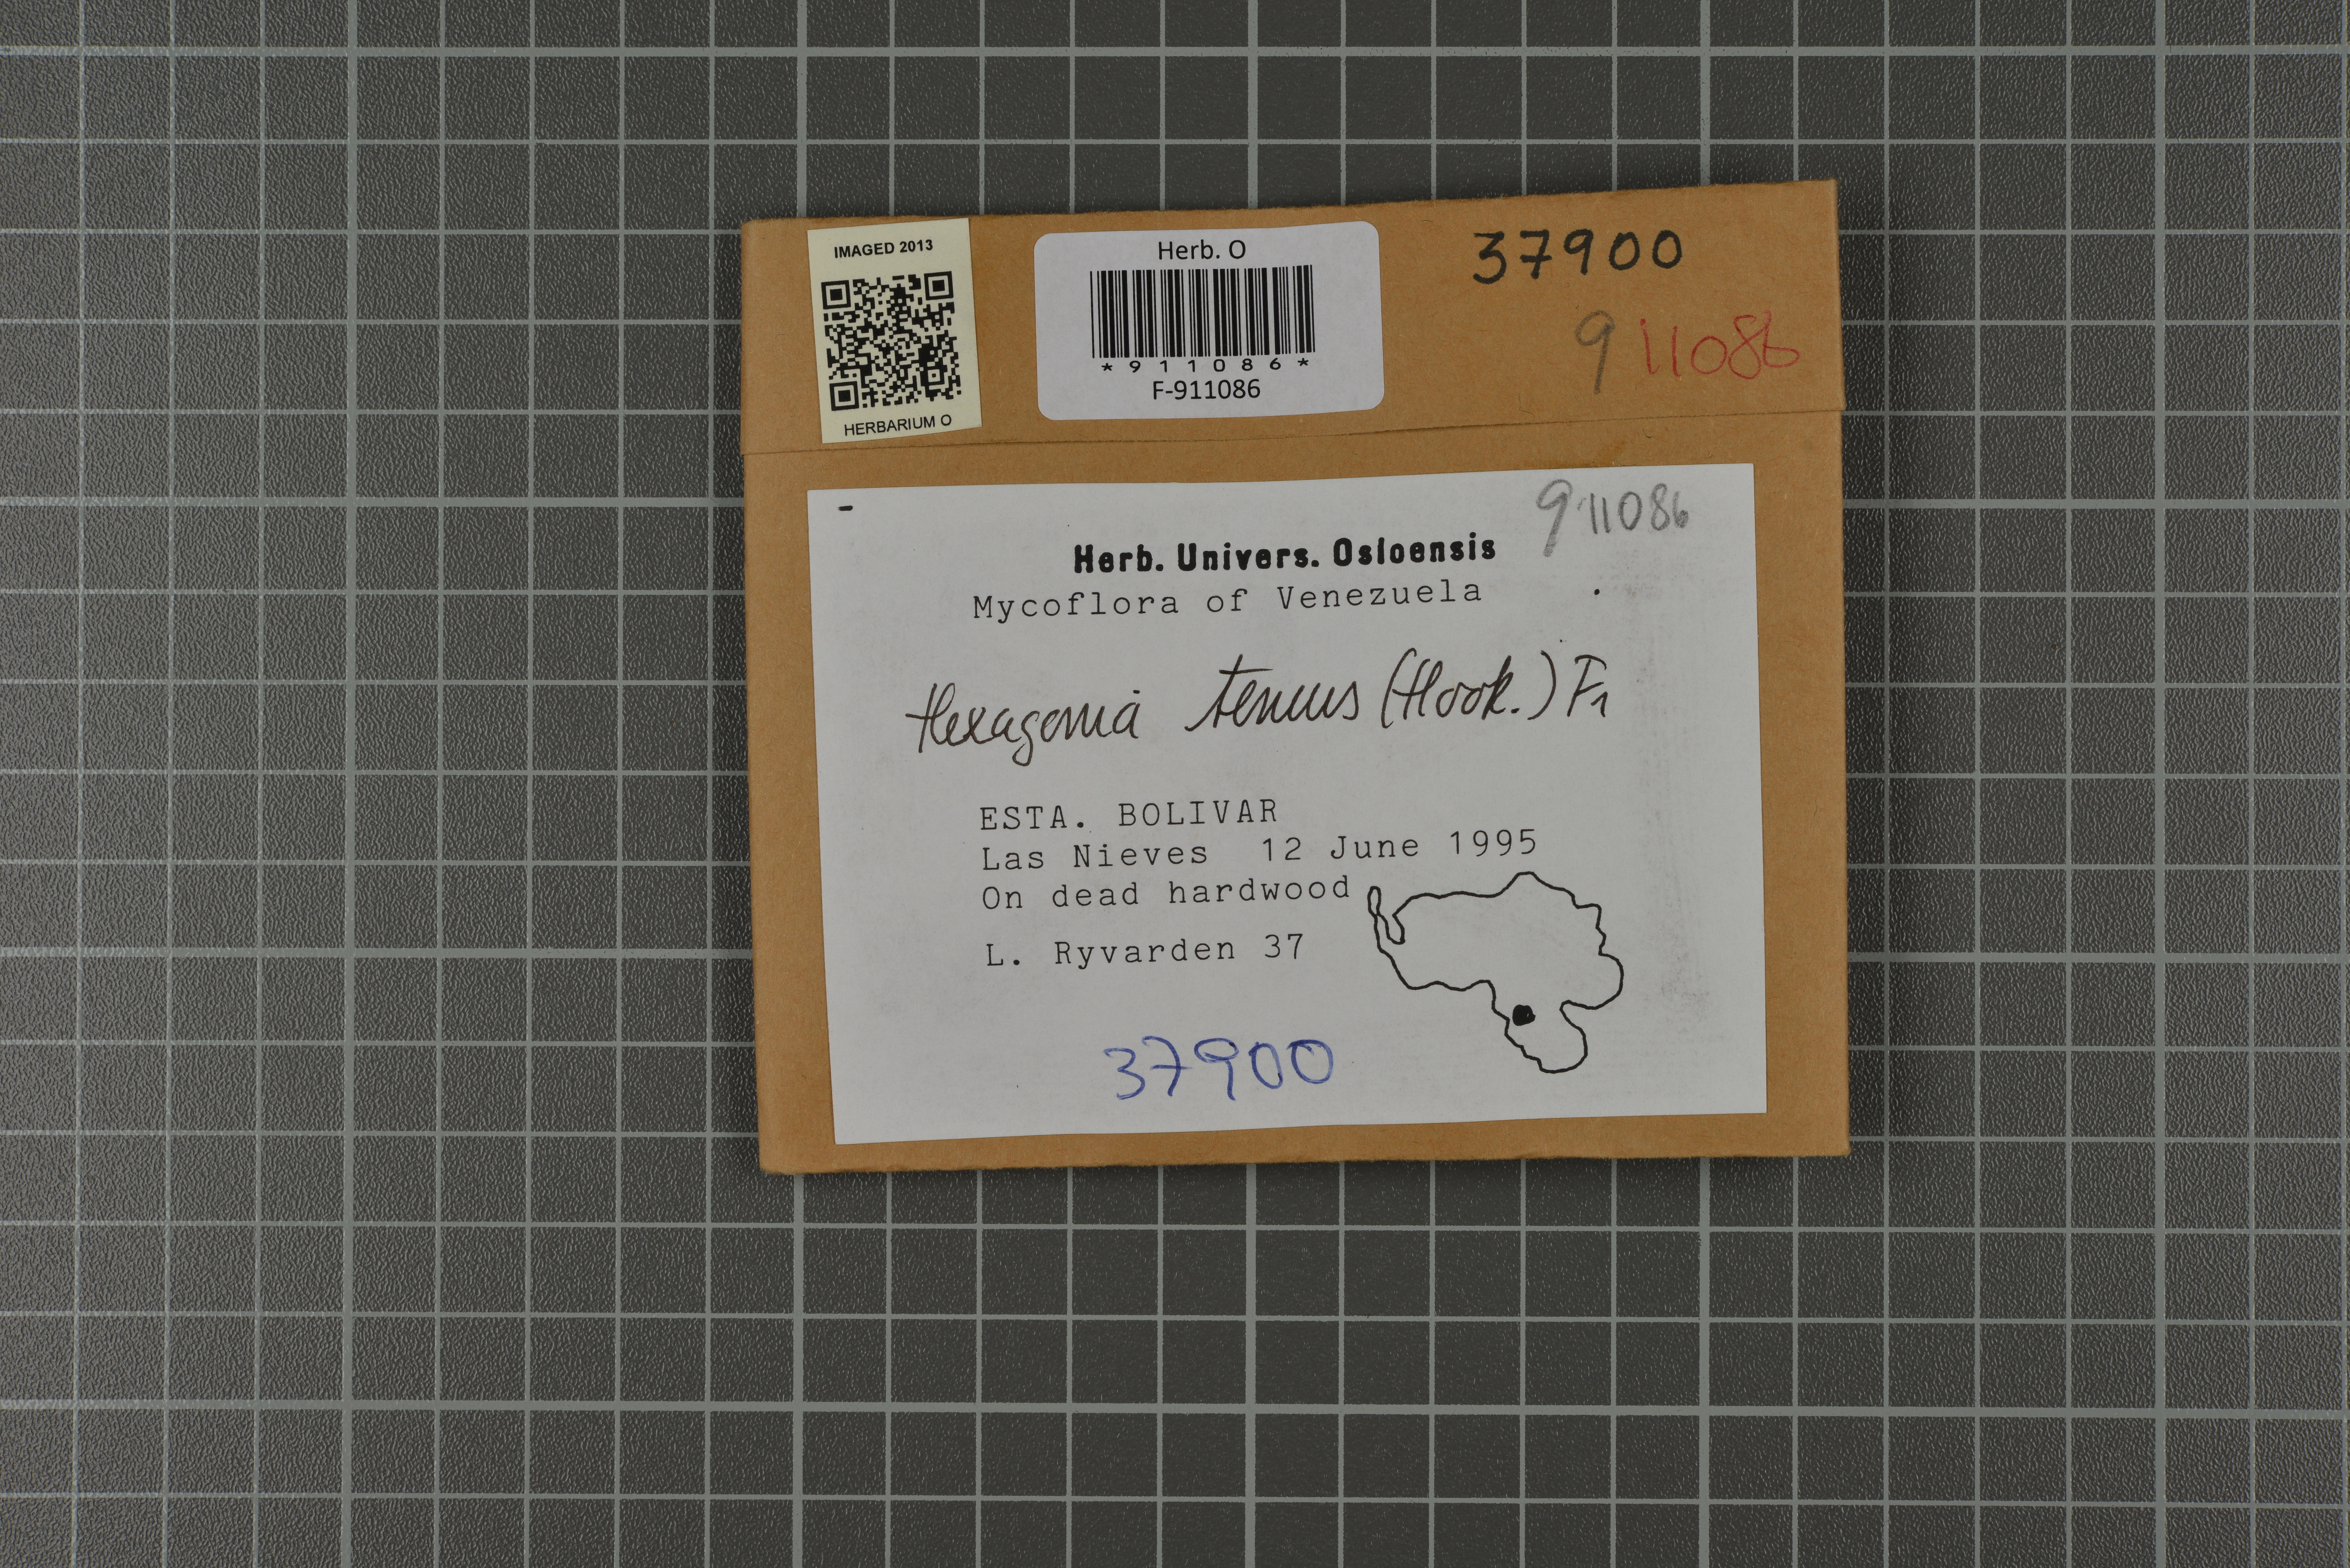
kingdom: Fungi
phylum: Basidiomycota
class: Agaricomycetes
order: Polyporales
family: Polyporaceae
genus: Pseudofavolus
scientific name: Pseudofavolus tenuis
